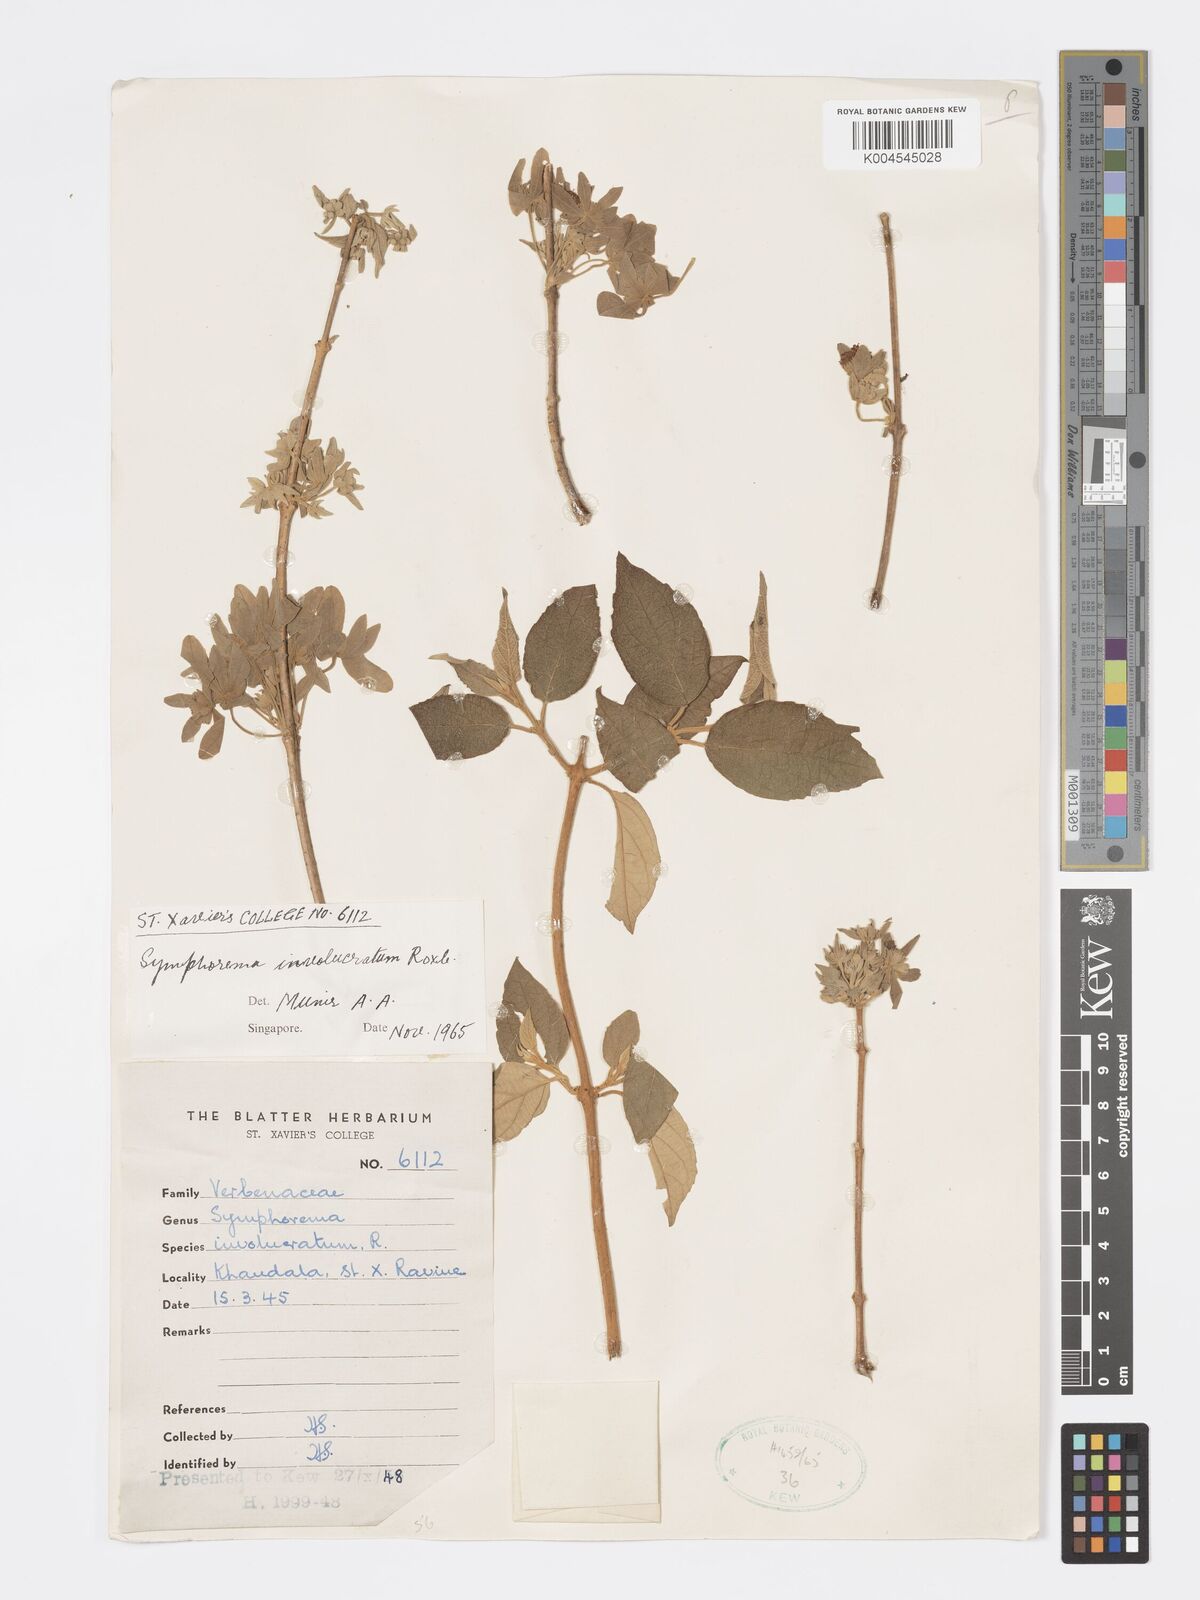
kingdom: Plantae
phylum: Tracheophyta
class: Magnoliopsida
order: Lamiales
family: Lamiaceae
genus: Symphorema
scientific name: Symphorema involucratum
